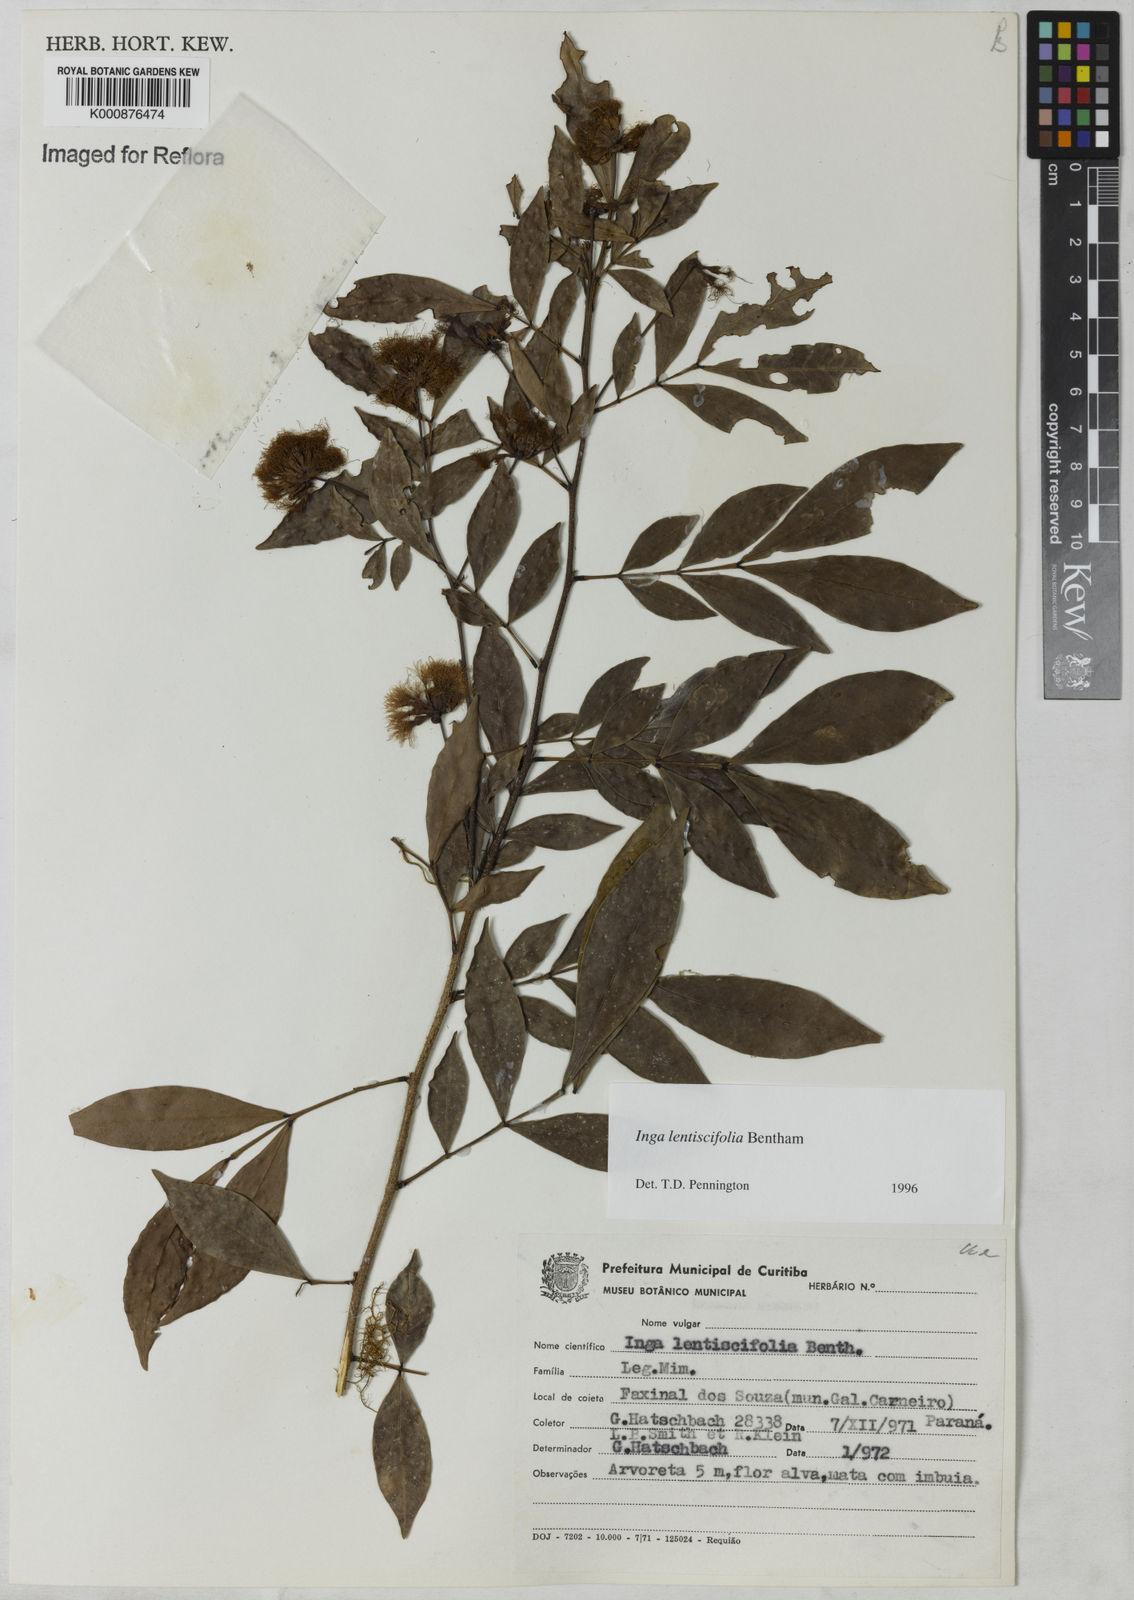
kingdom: Plantae
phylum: Tracheophyta
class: Magnoliopsida
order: Fabales
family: Fabaceae
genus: Inga
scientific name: Inga lentiscifolia
